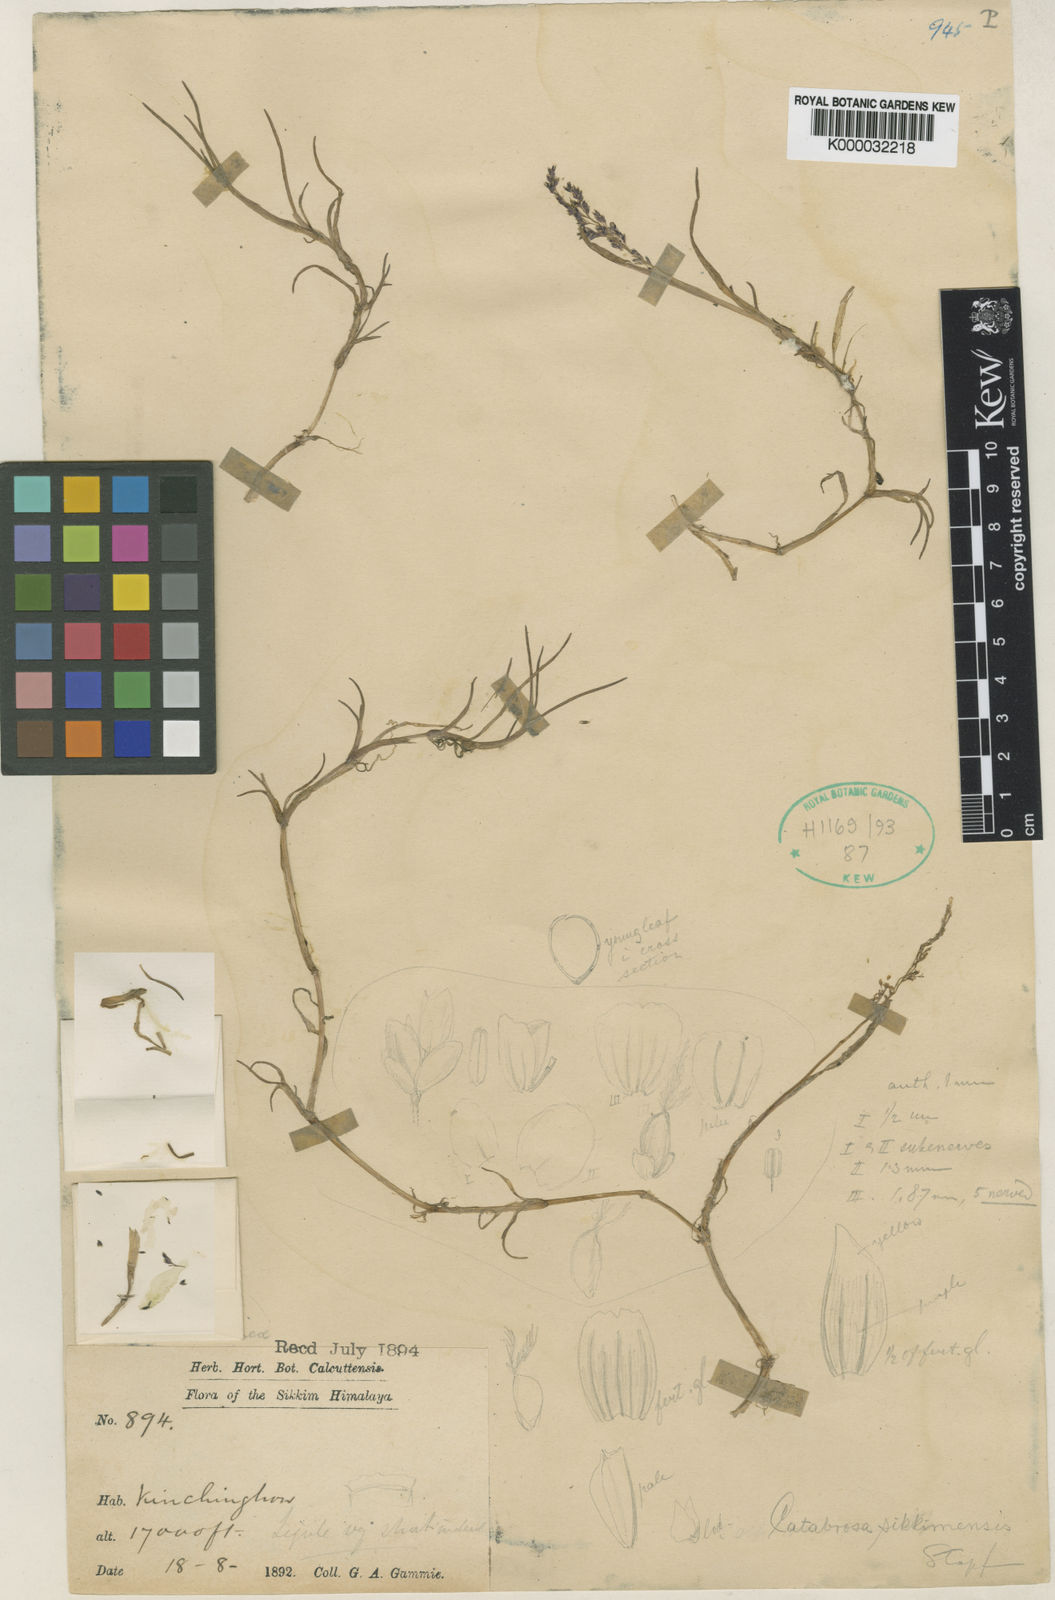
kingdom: Plantae
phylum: Tracheophyta
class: Liliopsida
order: Poales
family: Poaceae
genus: Catabrosa
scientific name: Catabrosa aquatica
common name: Whorl-grass
